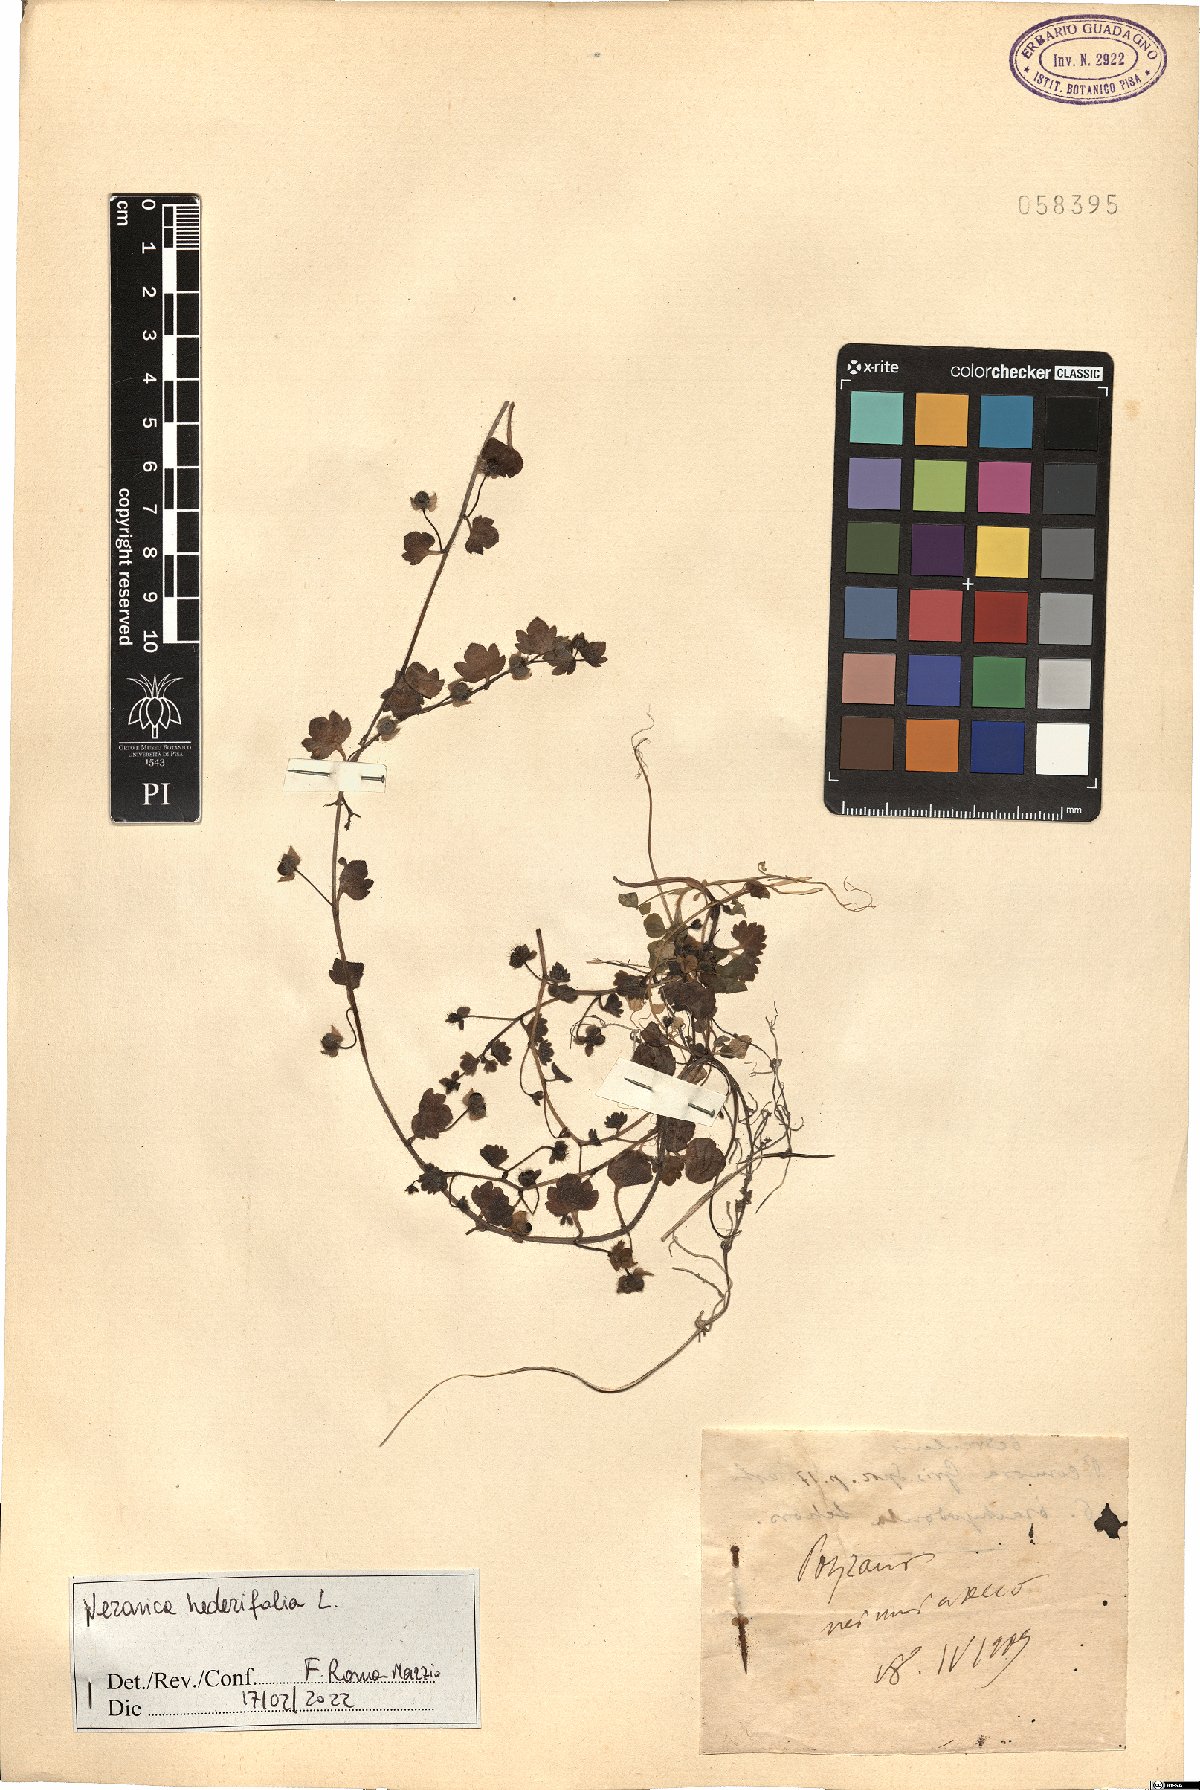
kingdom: Plantae
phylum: Tracheophyta
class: Magnoliopsida
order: Lamiales
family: Plantaginaceae
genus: Veronica
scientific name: Veronica hederifolia
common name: Ivy-leaved speedwell
